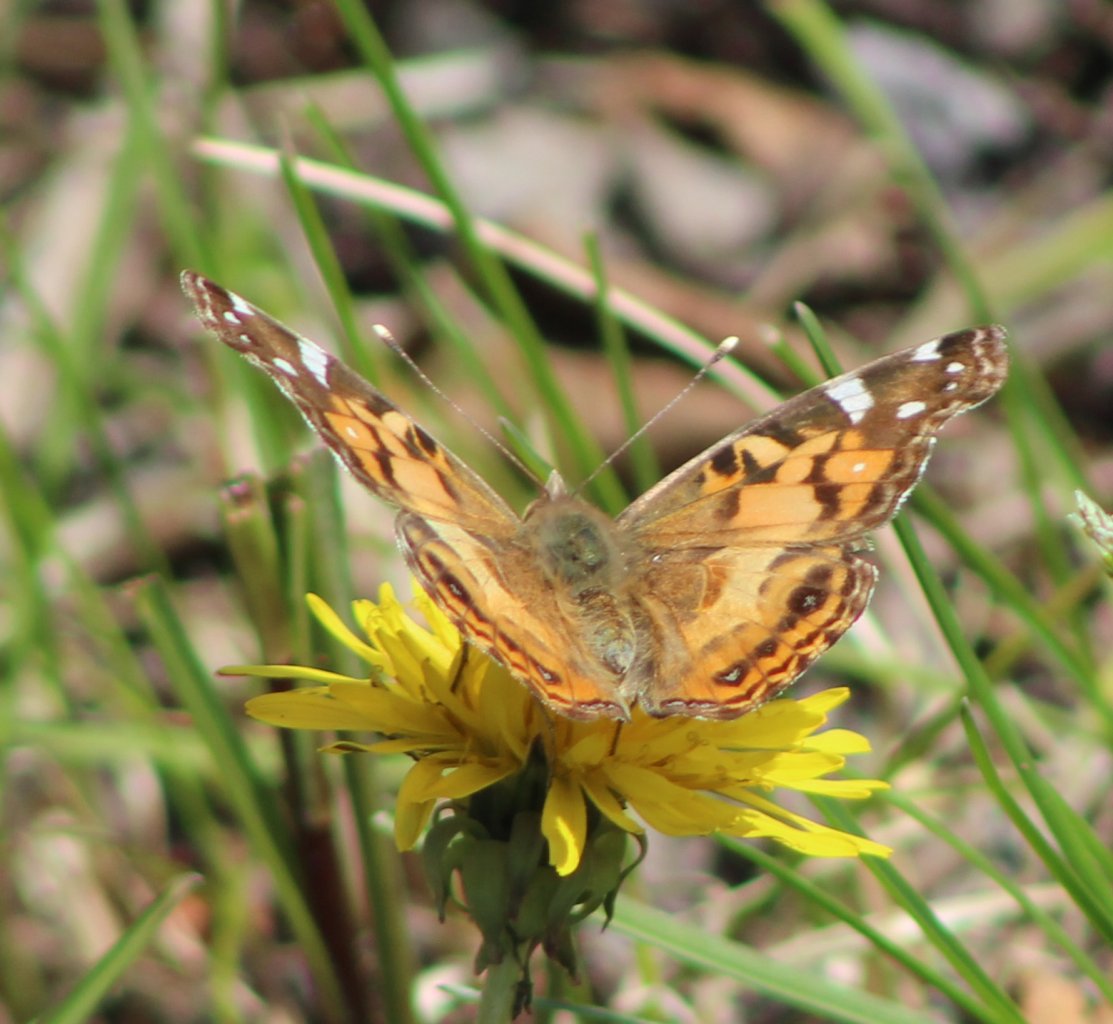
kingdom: Animalia
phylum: Arthropoda
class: Insecta
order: Lepidoptera
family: Nymphalidae
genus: Vanessa
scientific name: Vanessa virginiensis
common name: American Lady
